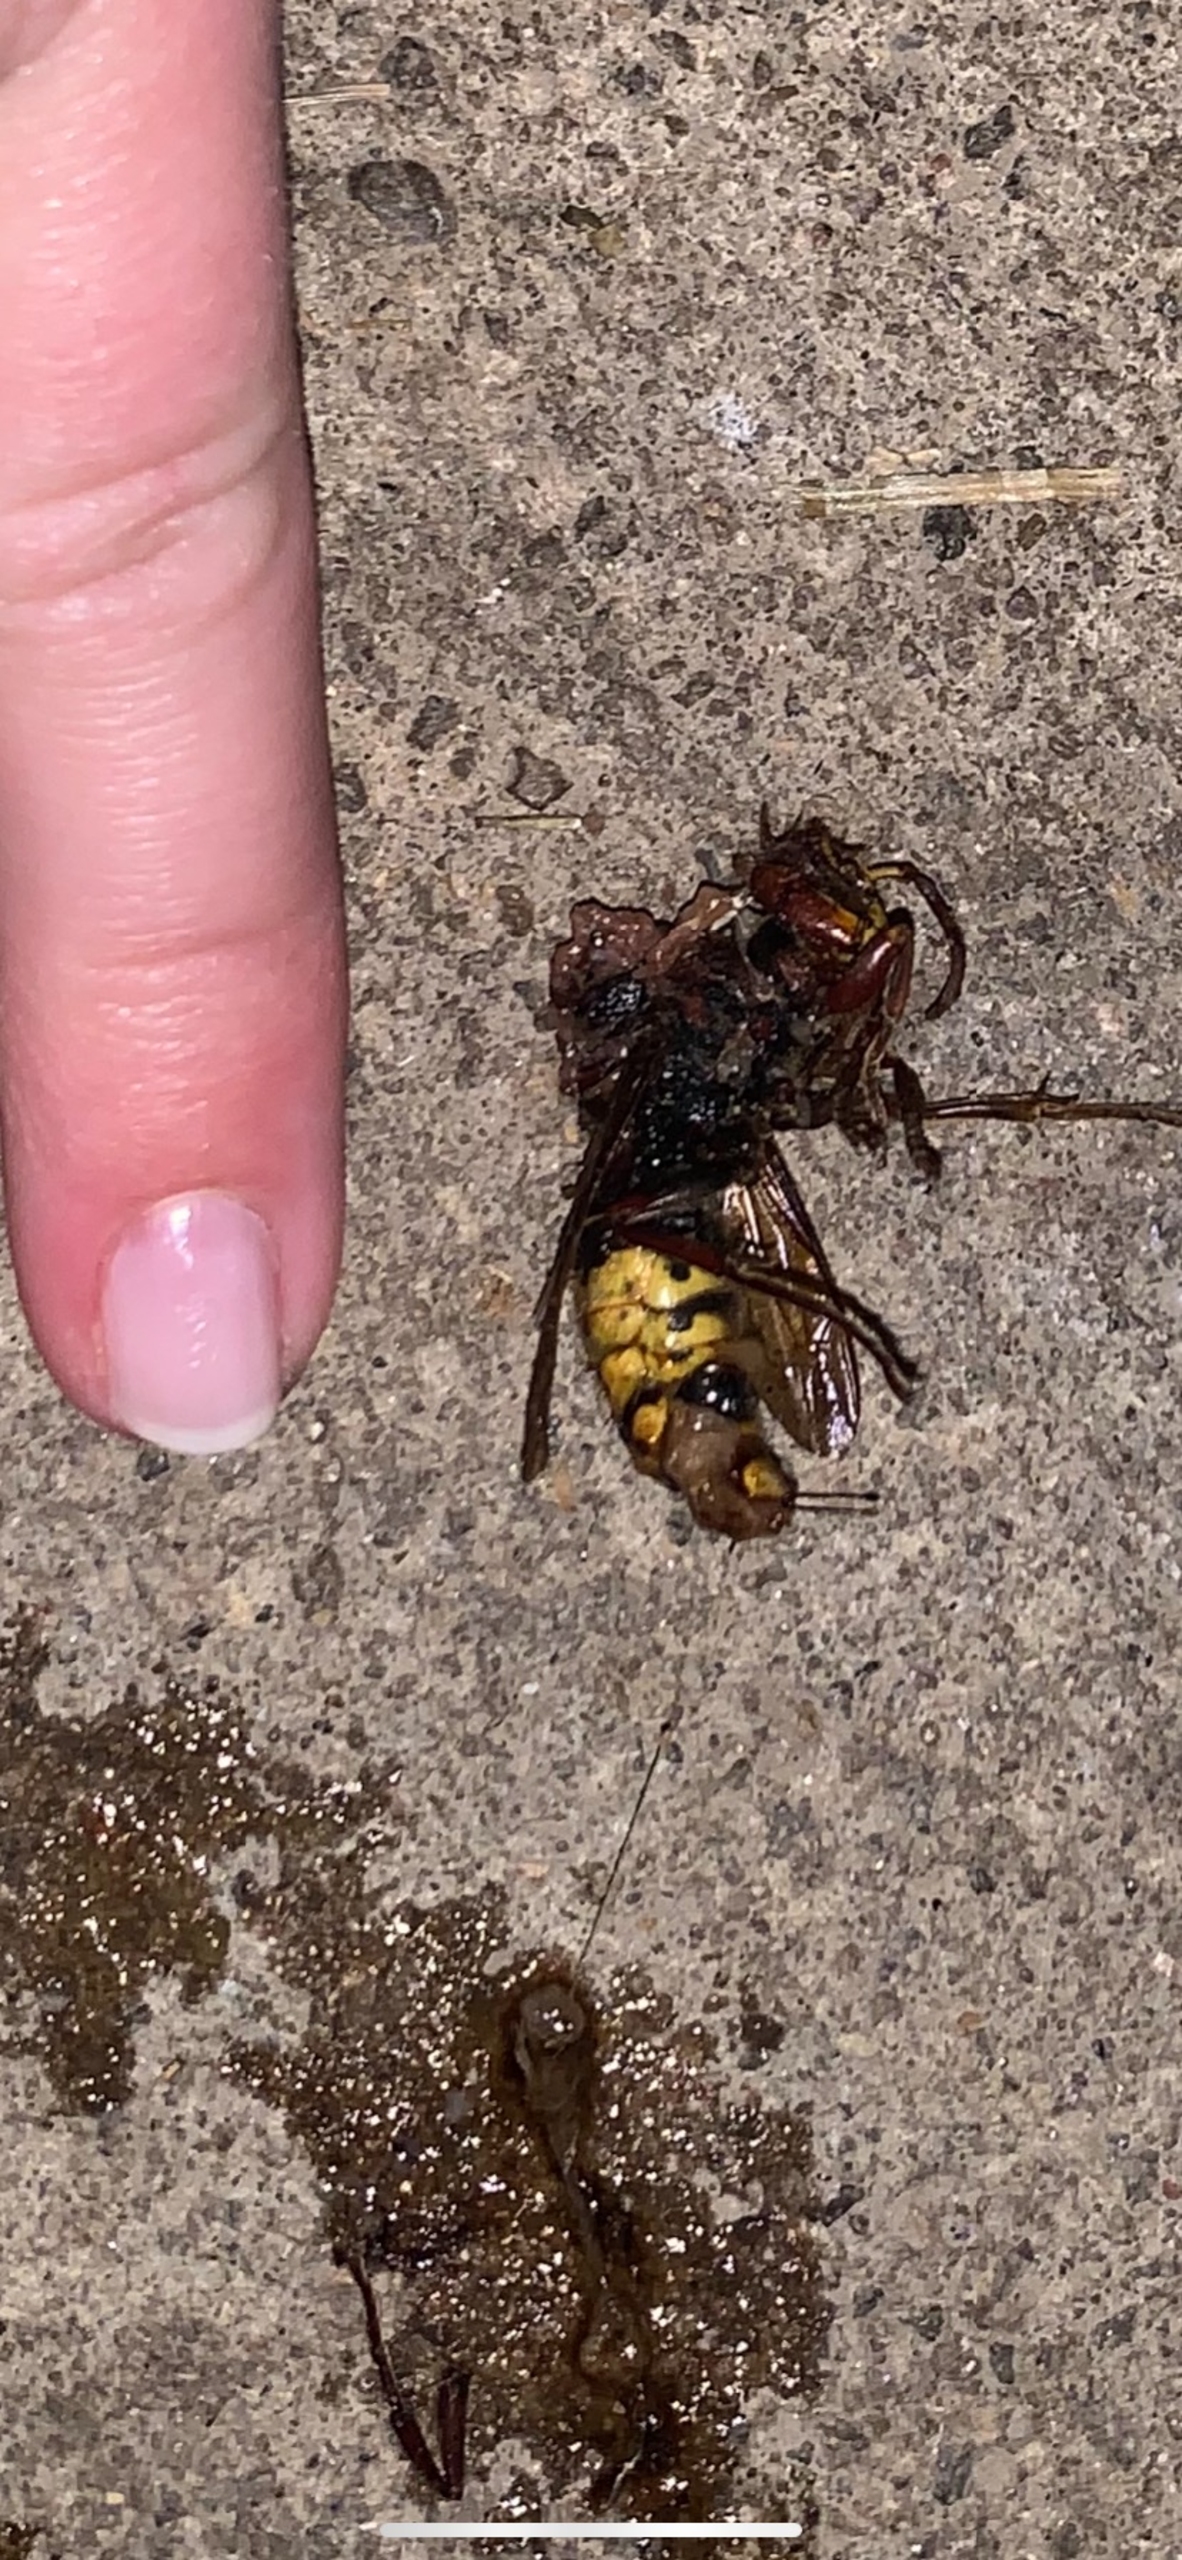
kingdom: Animalia
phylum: Arthropoda
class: Insecta
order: Hymenoptera
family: Vespidae
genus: Vespa
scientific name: Vespa crabro
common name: Stor gedehams
